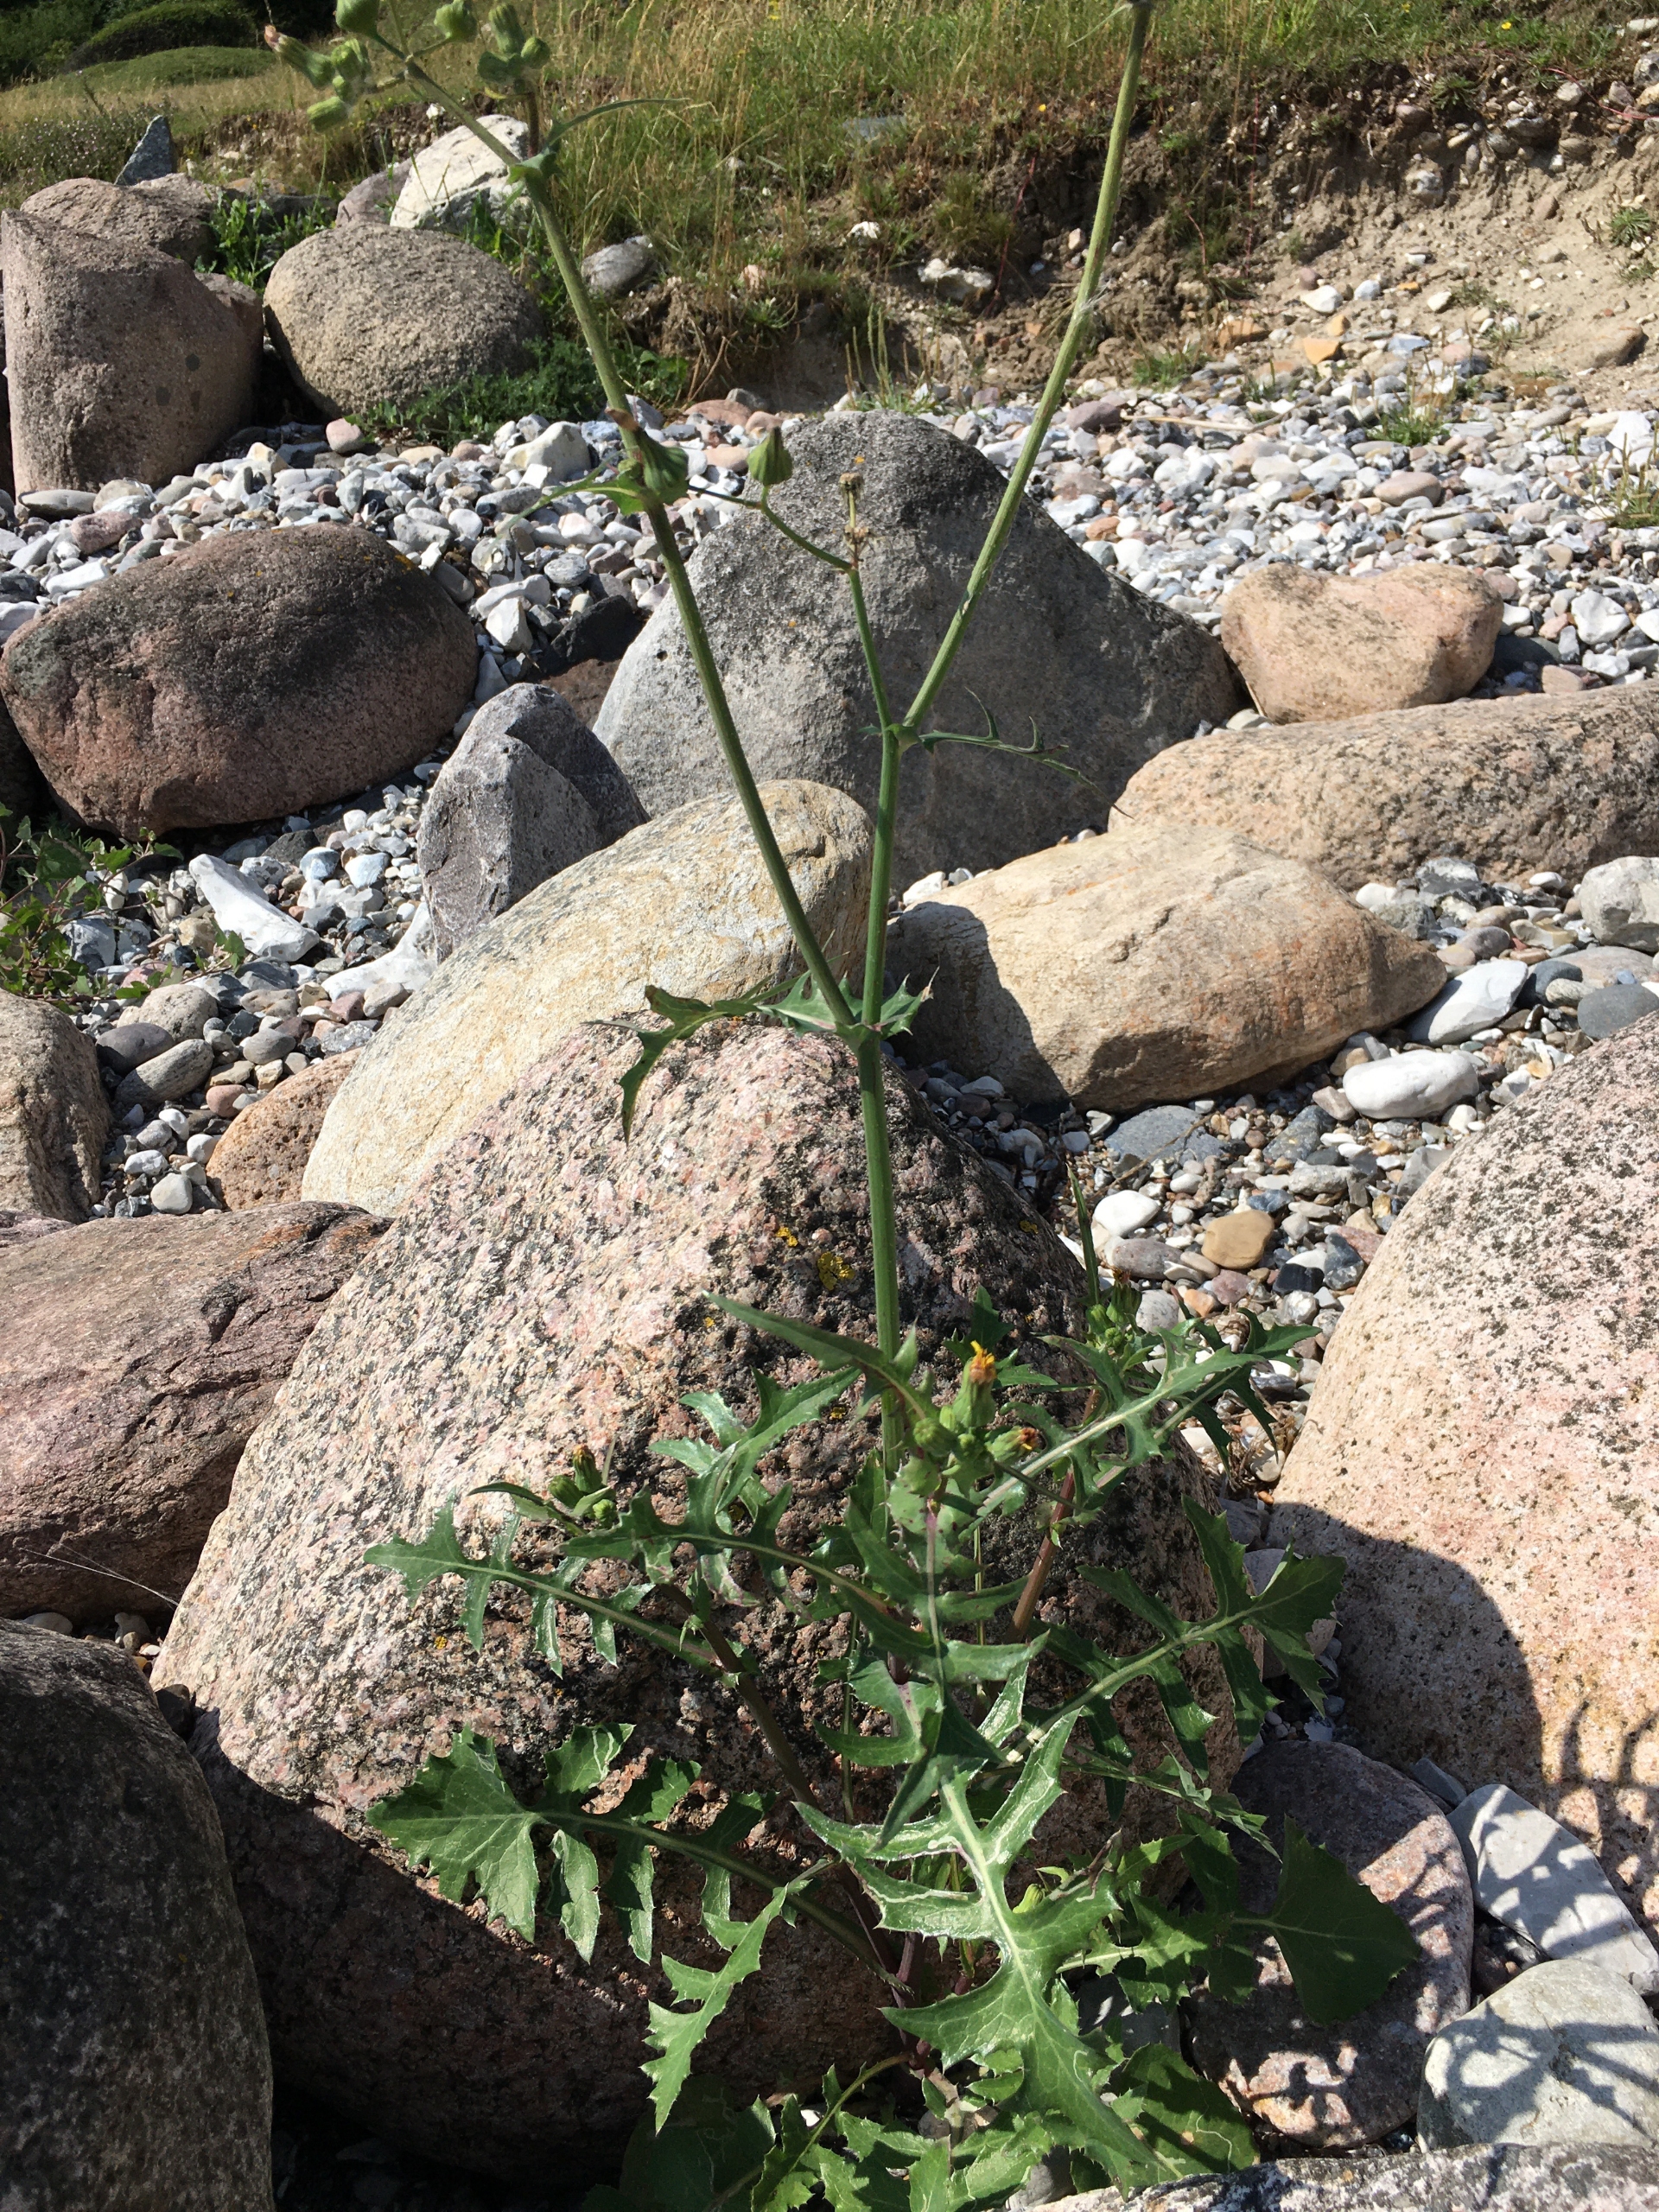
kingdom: Plantae
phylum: Tracheophyta
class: Magnoliopsida
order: Asterales
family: Asteraceae
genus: Sonchus
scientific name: Sonchus oleraceus
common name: Almindelig svinemælk
